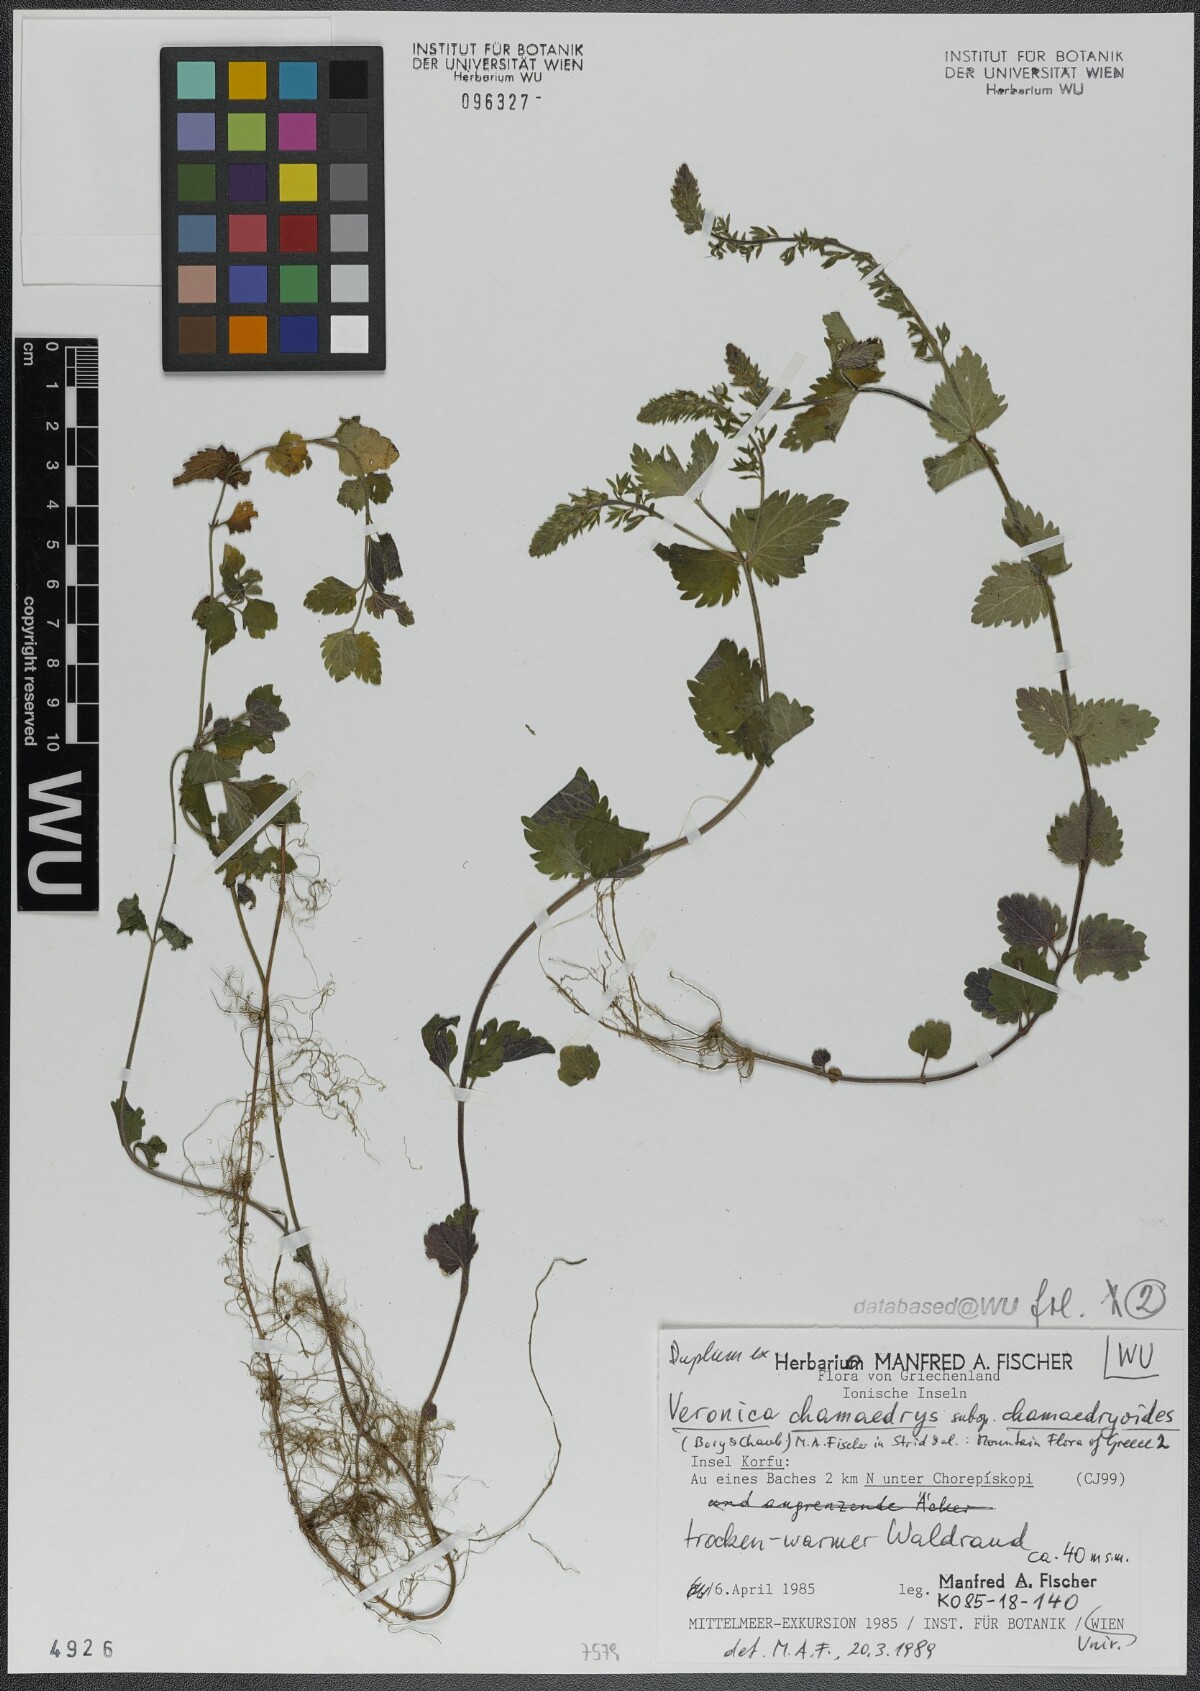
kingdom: Plantae
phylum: Tracheophyta
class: Magnoliopsida
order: Lamiales
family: Plantaginaceae
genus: Veronica
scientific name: Veronica chamaedrys
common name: Germander speedwell
